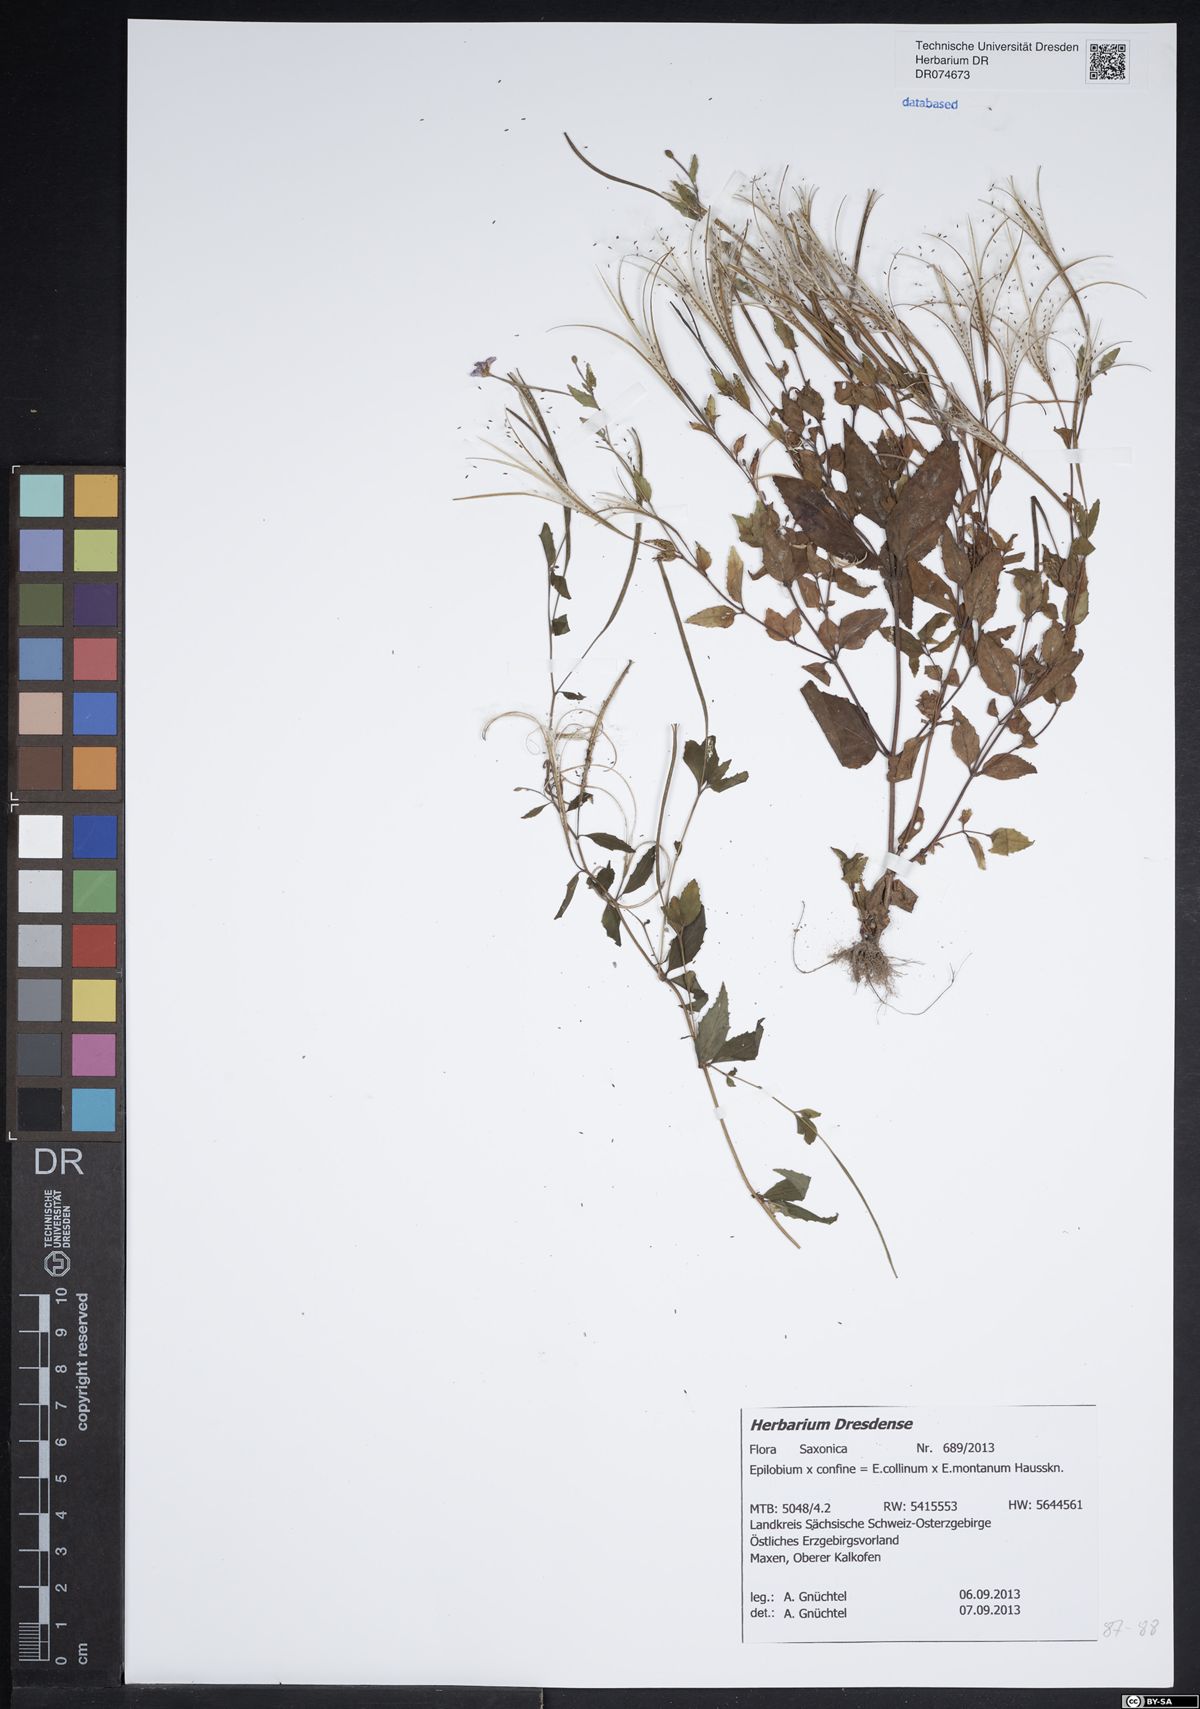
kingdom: Plantae
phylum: Tracheophyta
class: Magnoliopsida
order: Myrtales
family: Onagraceae
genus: Epilobium
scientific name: Epilobium confine
